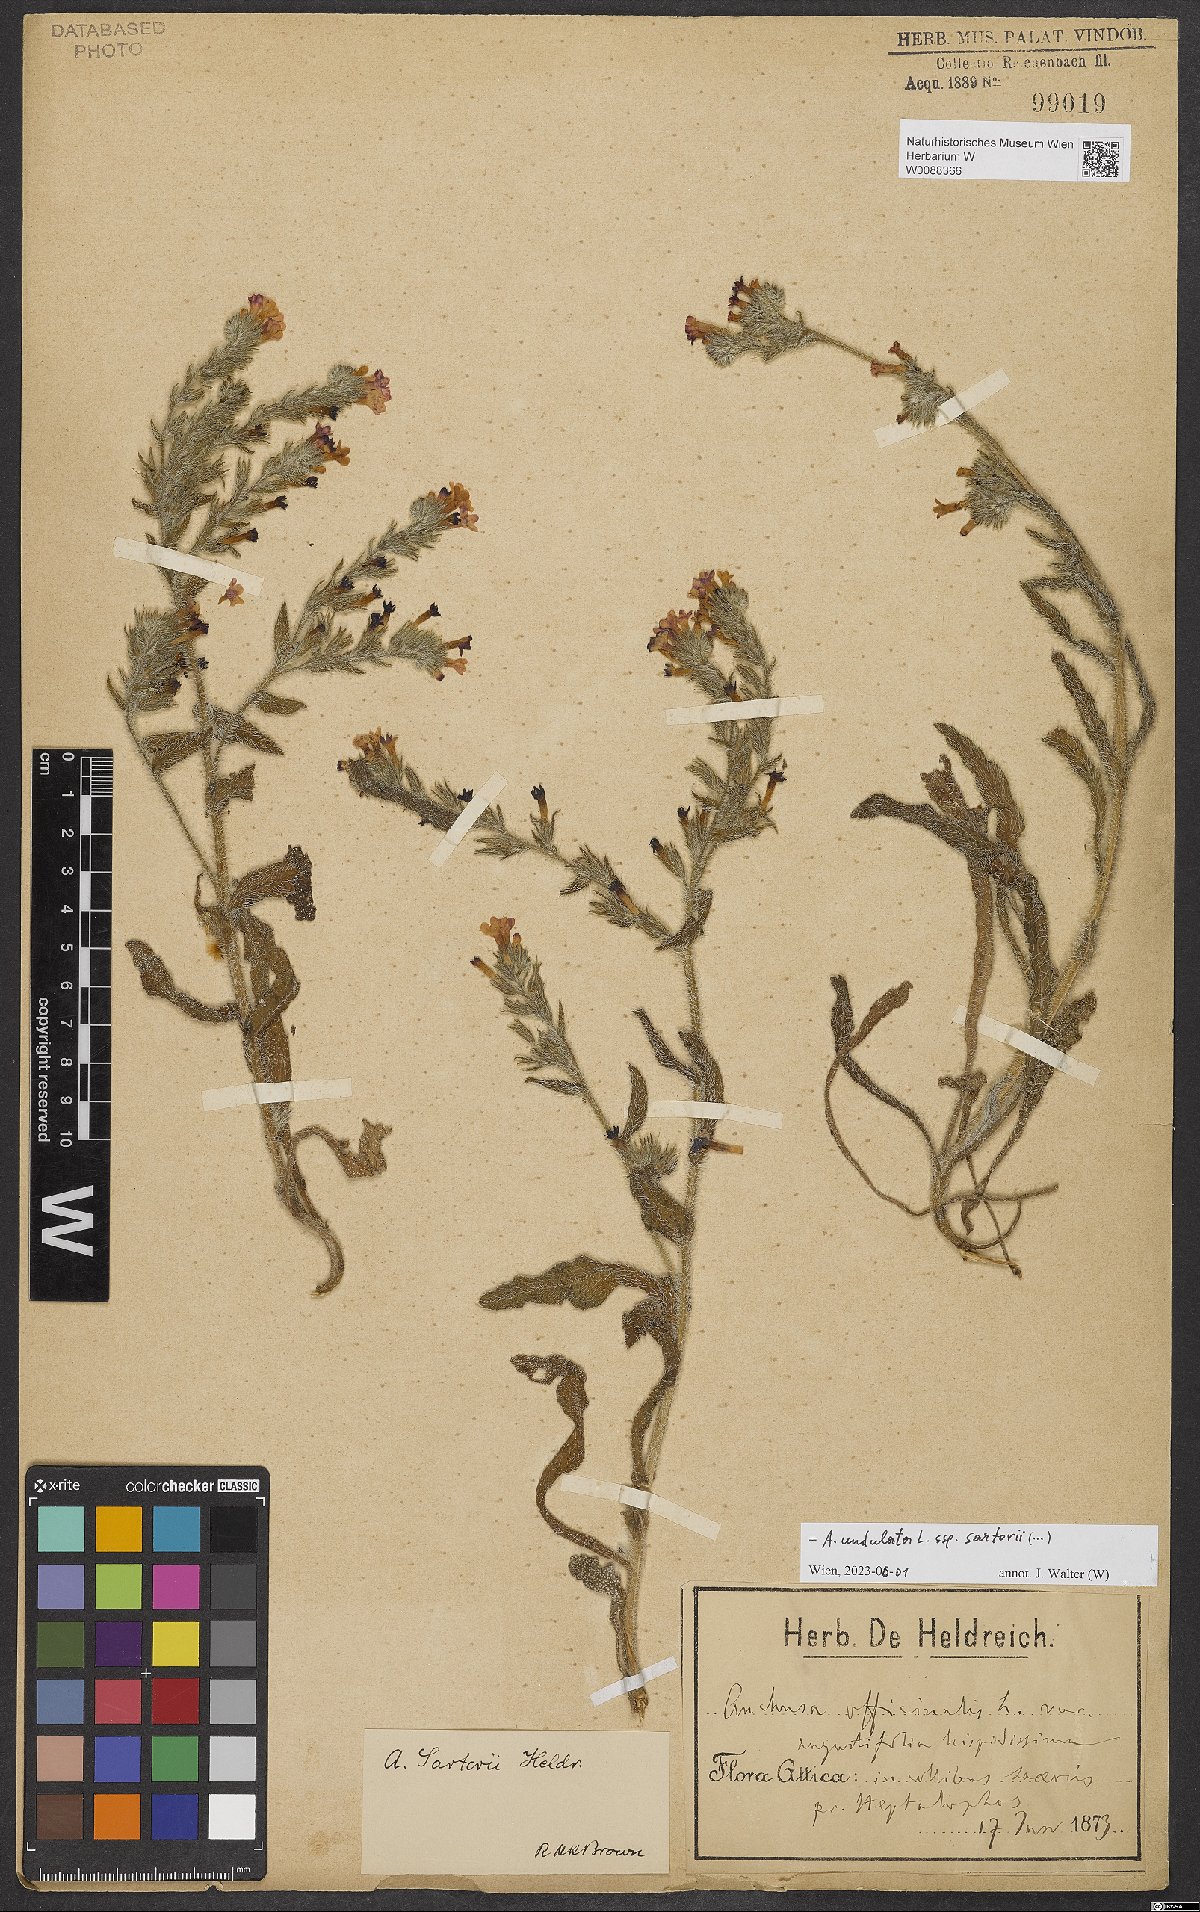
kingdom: Plantae
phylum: Tracheophyta
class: Magnoliopsida
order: Boraginales
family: Boraginaceae
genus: Anchusa
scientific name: Anchusa undulata
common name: Undulate alkanet
